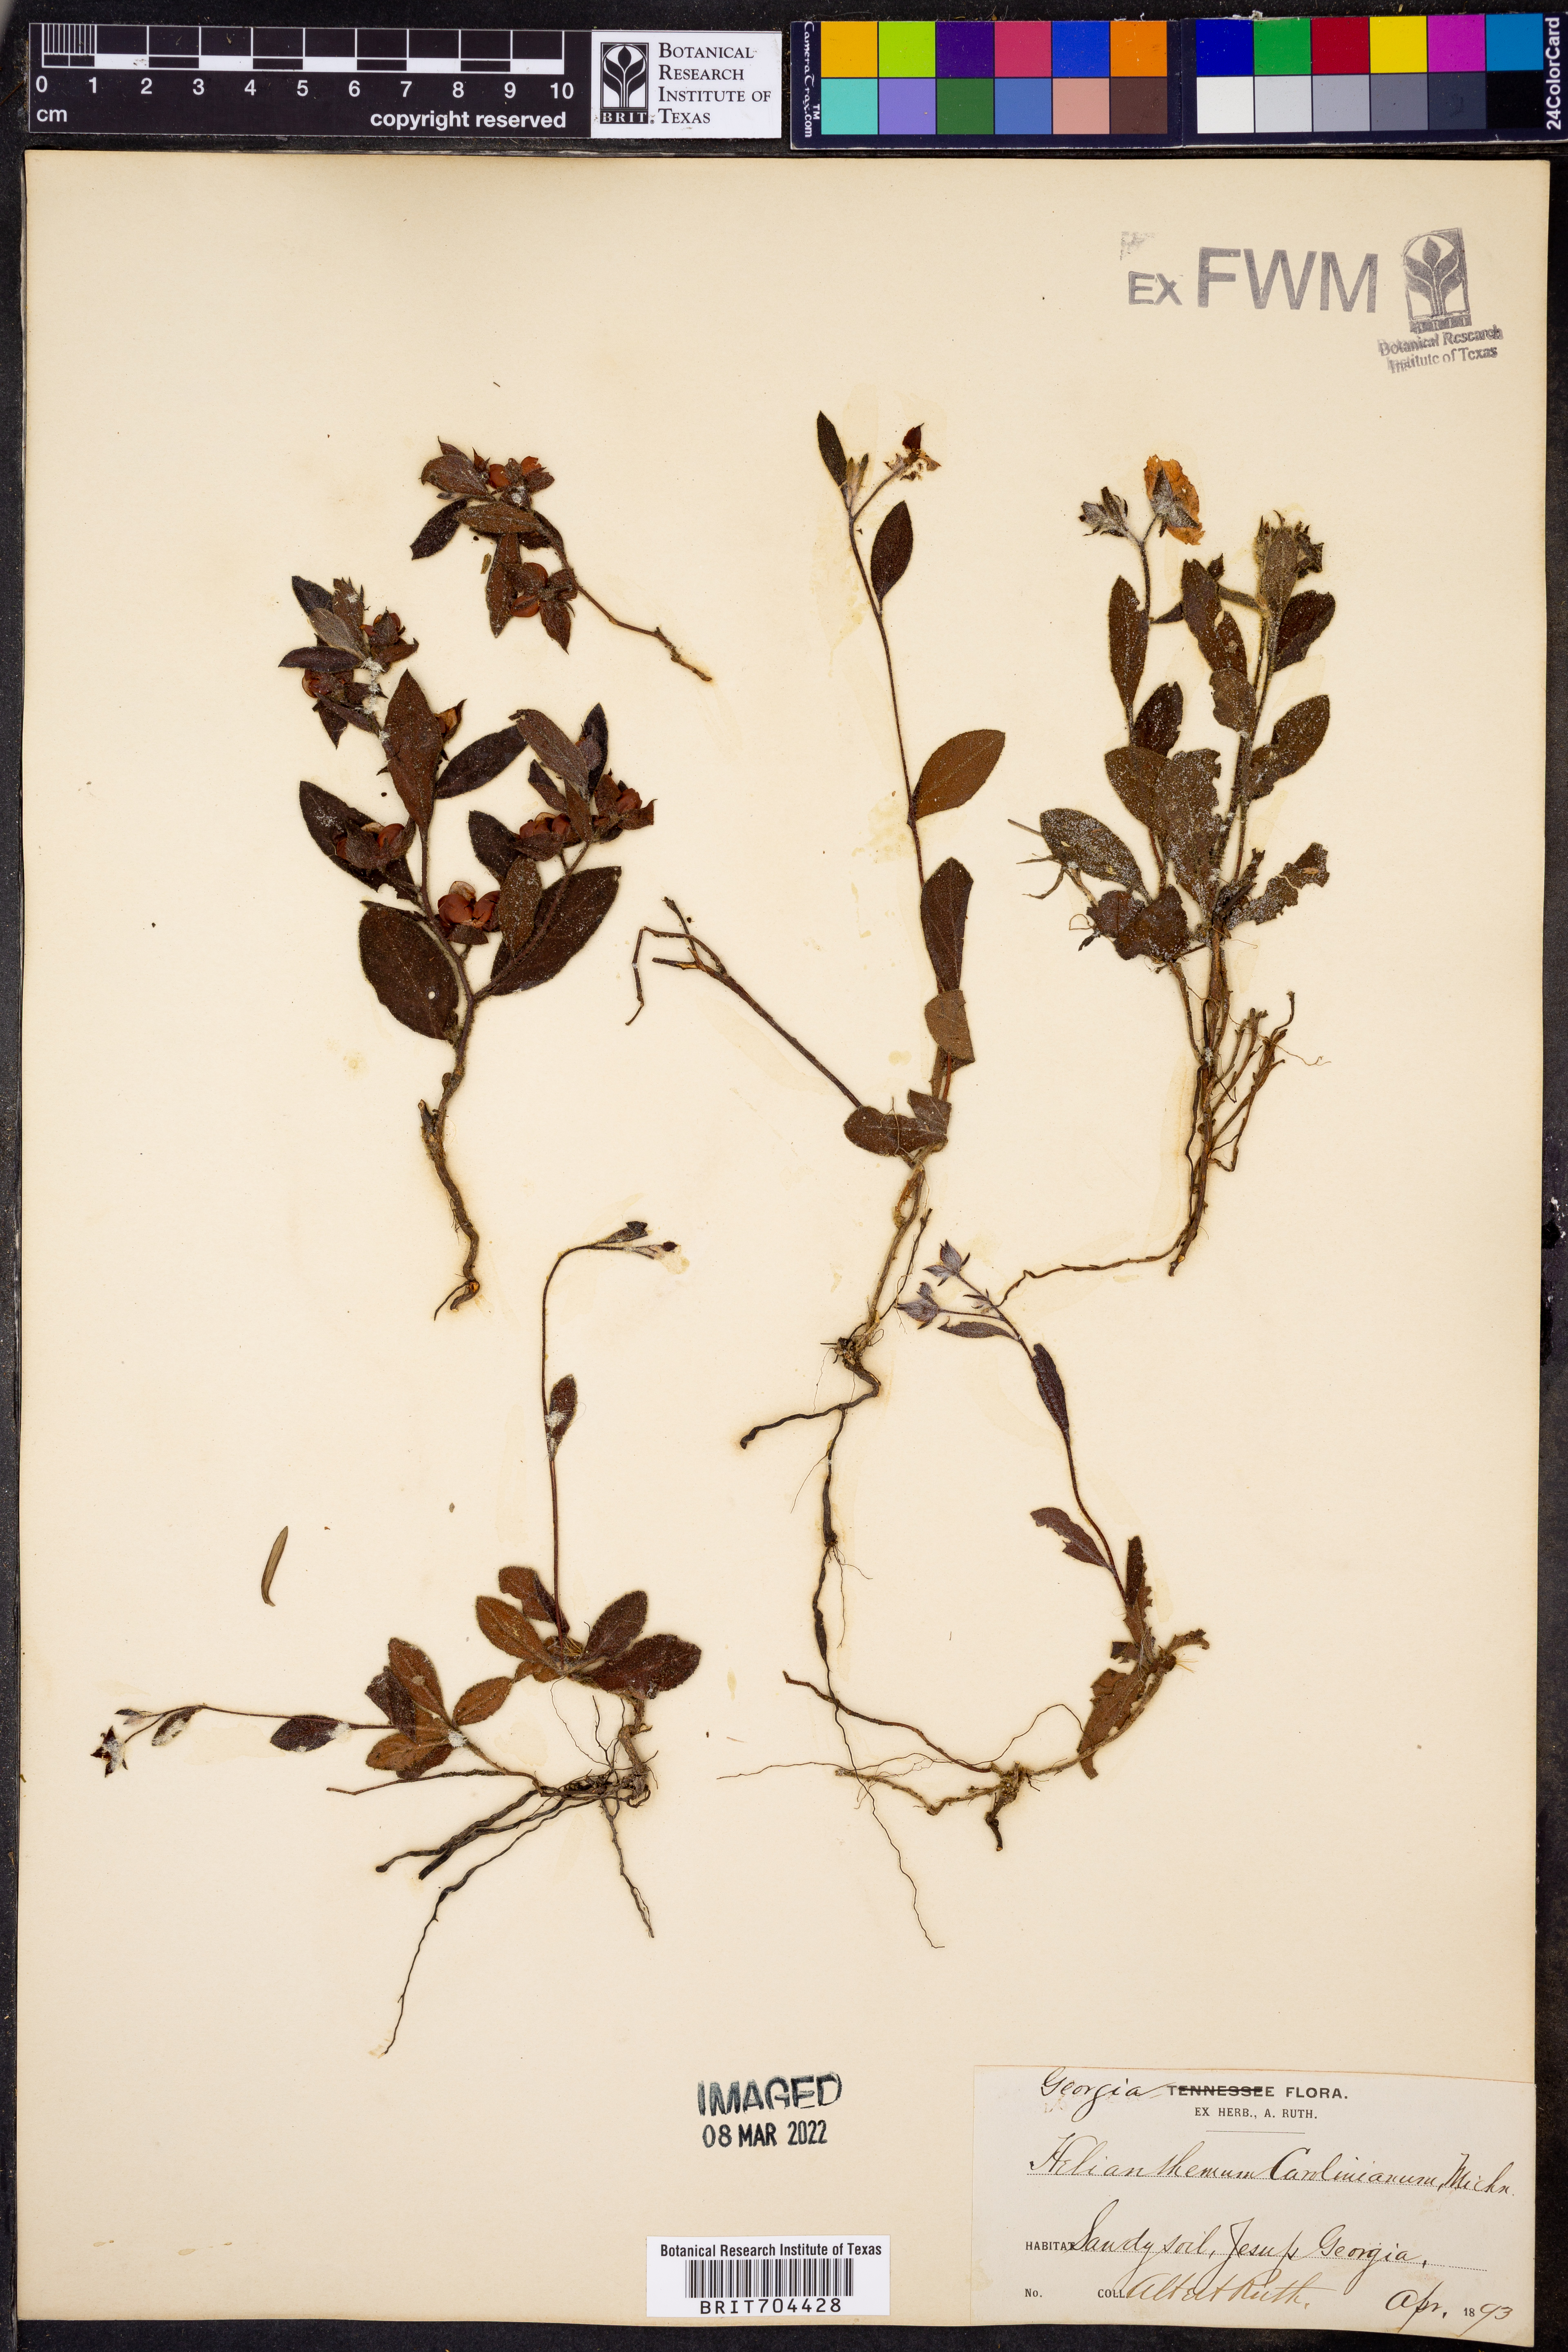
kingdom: Plantae
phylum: Tracheophyta
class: Magnoliopsida
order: Malvales
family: Cistaceae
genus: Crocanthemum
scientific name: Crocanthemum carolinianum
